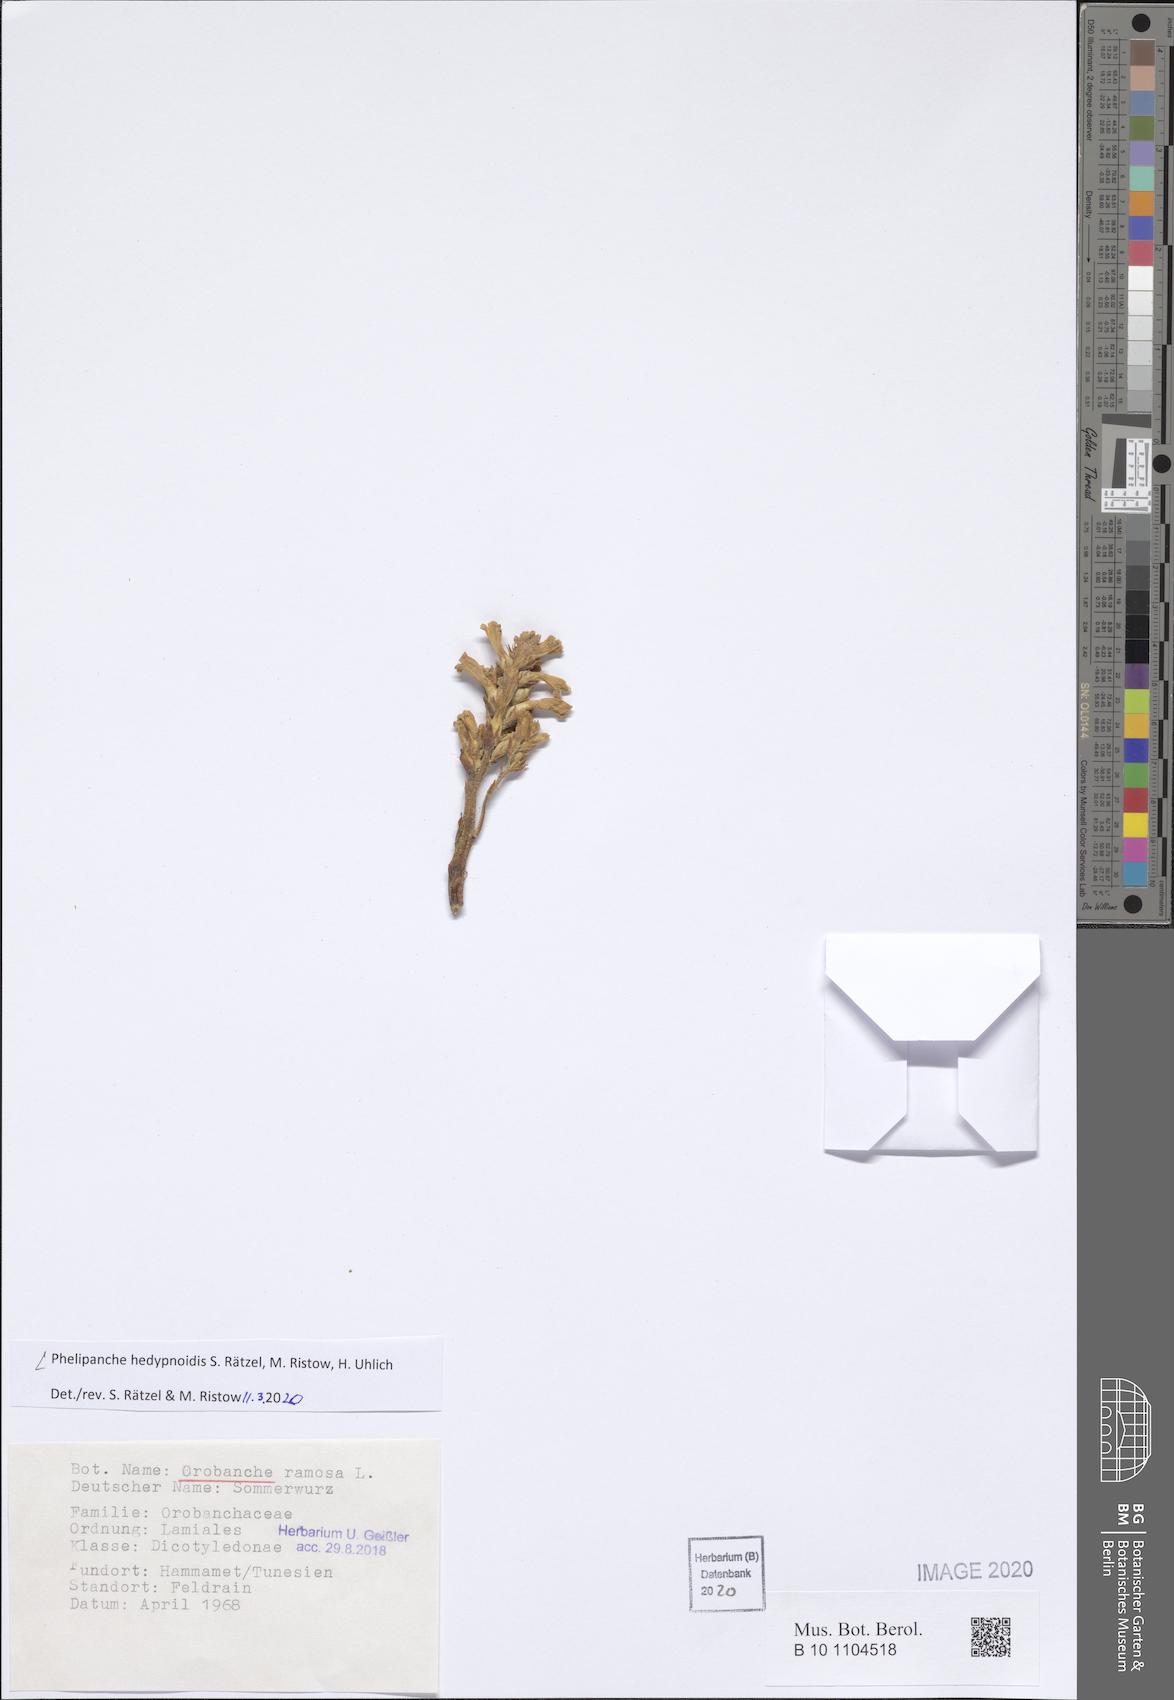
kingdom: Plantae
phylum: Tracheophyta
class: Magnoliopsida
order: Lamiales
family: Orobanchaceae
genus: Phelipanche
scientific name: Phelipanche hedypnoidis
